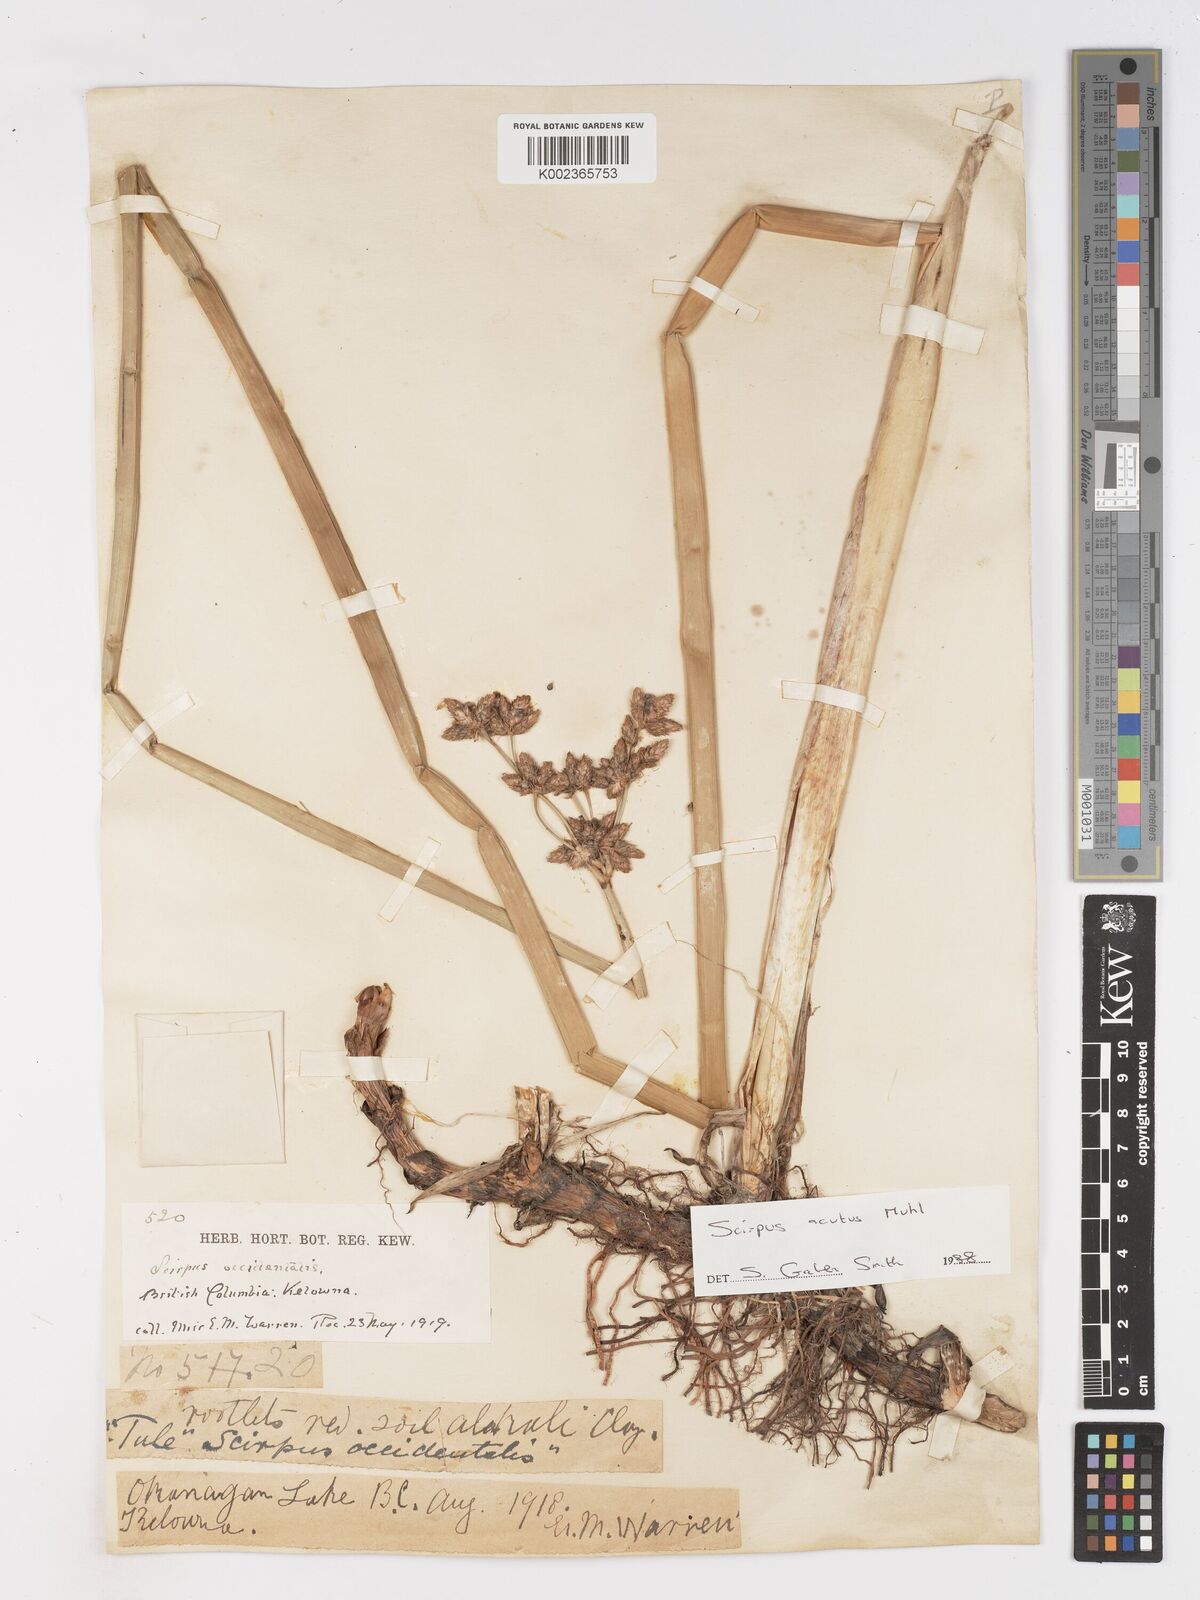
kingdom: Plantae
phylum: Tracheophyta
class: Liliopsida
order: Poales
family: Cyperaceae
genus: Schoenoplectus
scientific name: Schoenoplectus
